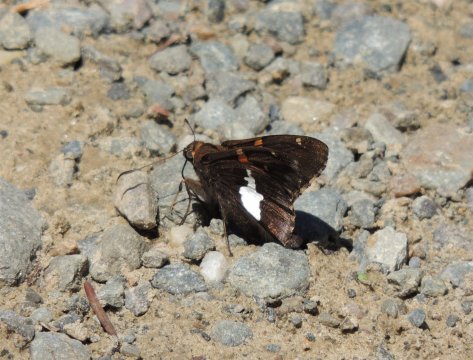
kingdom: Animalia
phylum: Arthropoda
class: Insecta
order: Lepidoptera
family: Hesperiidae
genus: Epargyreus
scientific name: Epargyreus clarus
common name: Silver-spotted Skipper
